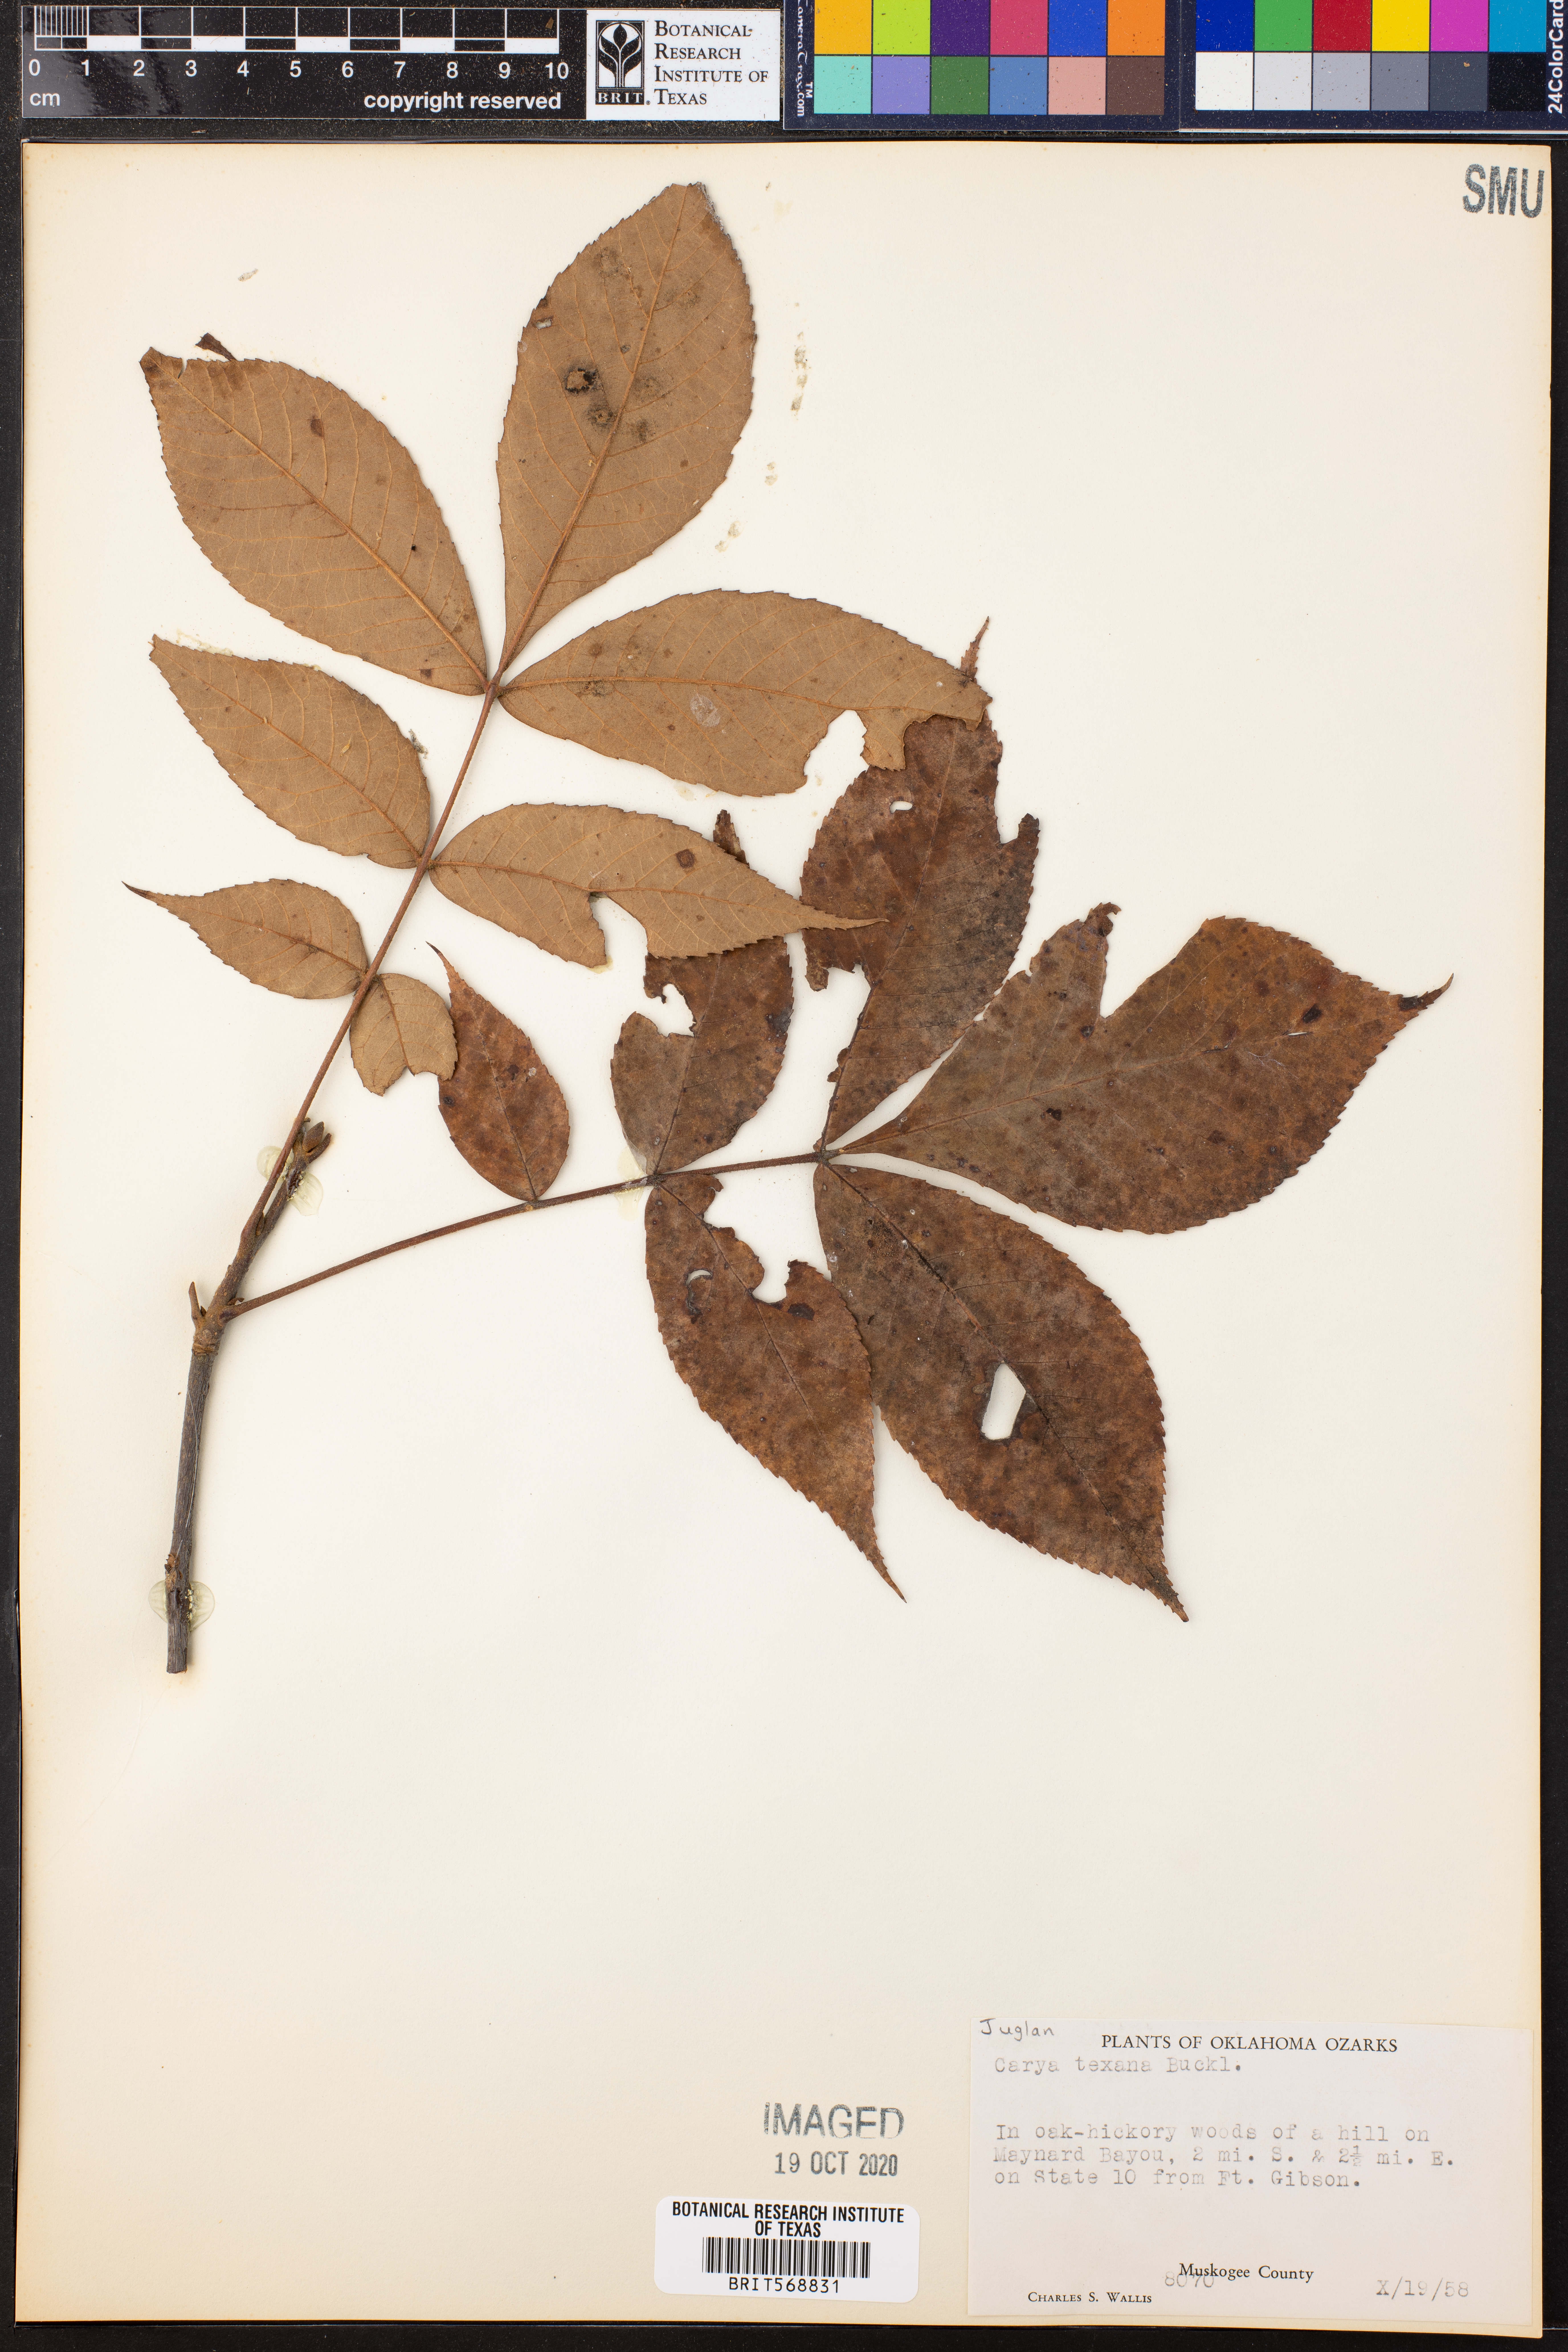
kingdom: Plantae
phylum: Tracheophyta
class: Magnoliopsida
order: Fagales
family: Juglandaceae
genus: Carya
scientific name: Carya texana
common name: Black hickory
